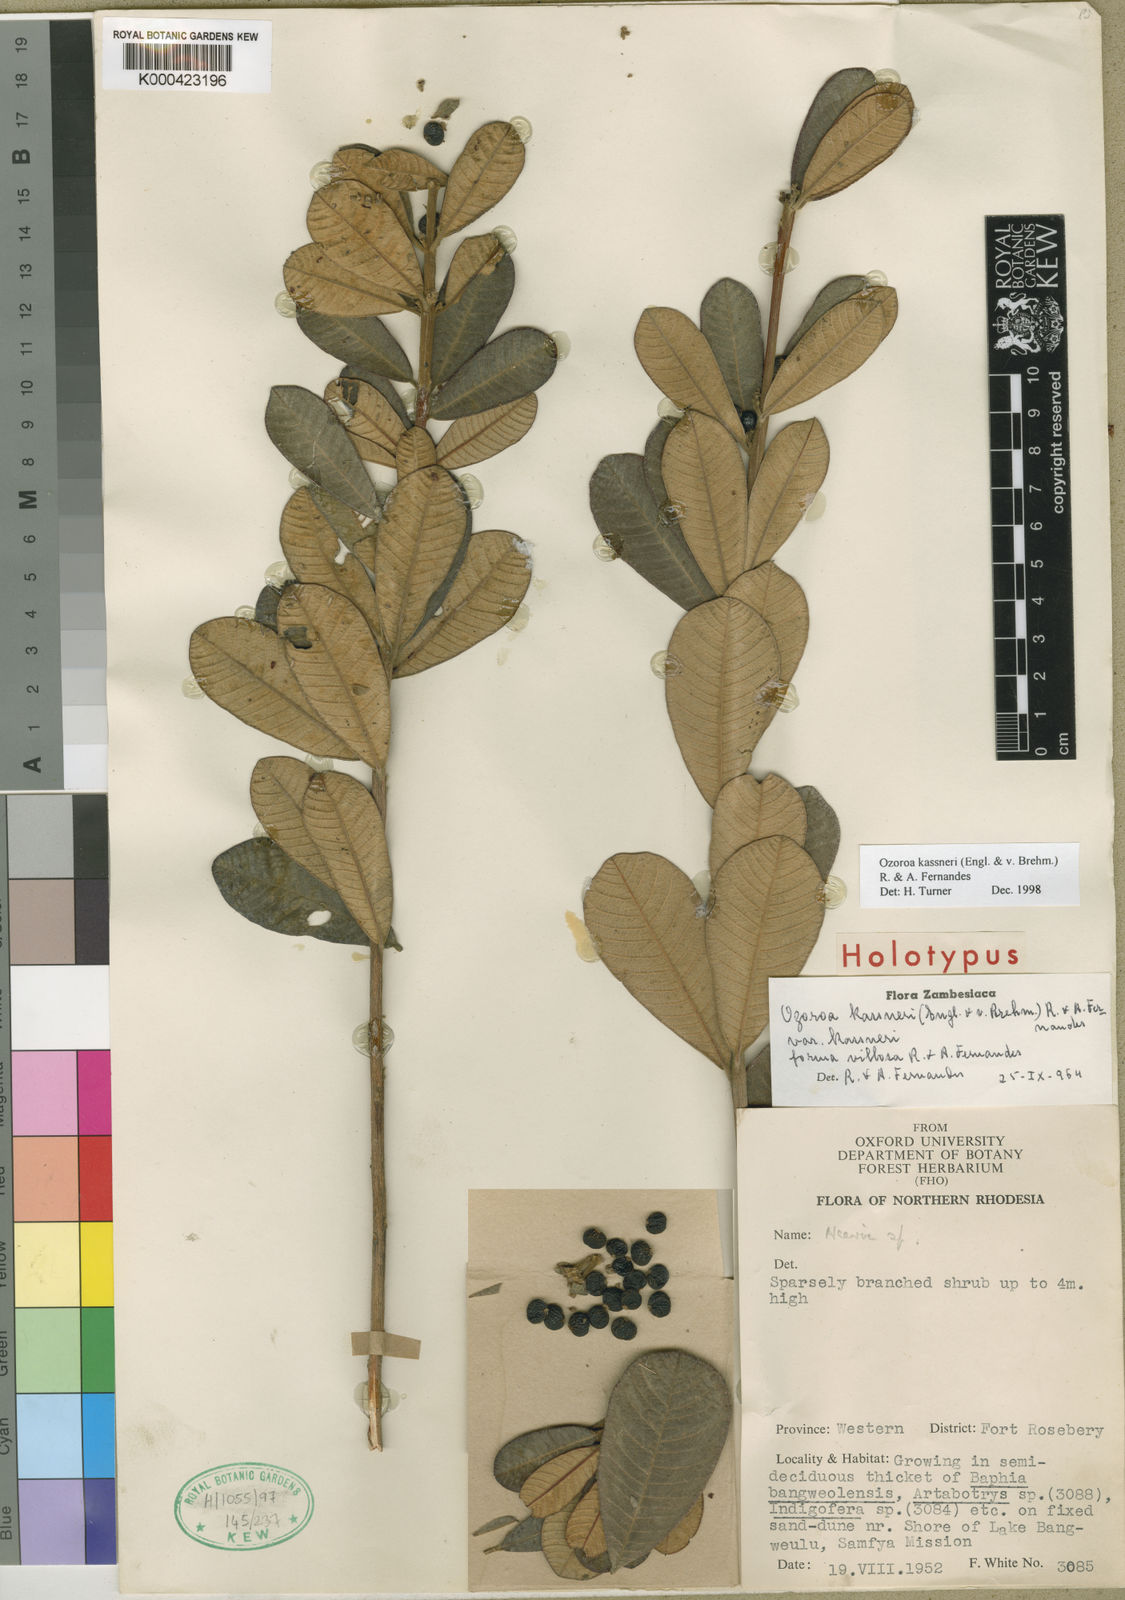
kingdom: Plantae
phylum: Tracheophyta
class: Magnoliopsida
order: Sapindales
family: Anacardiaceae
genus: Ozoroa
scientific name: Ozoroa kassneri
